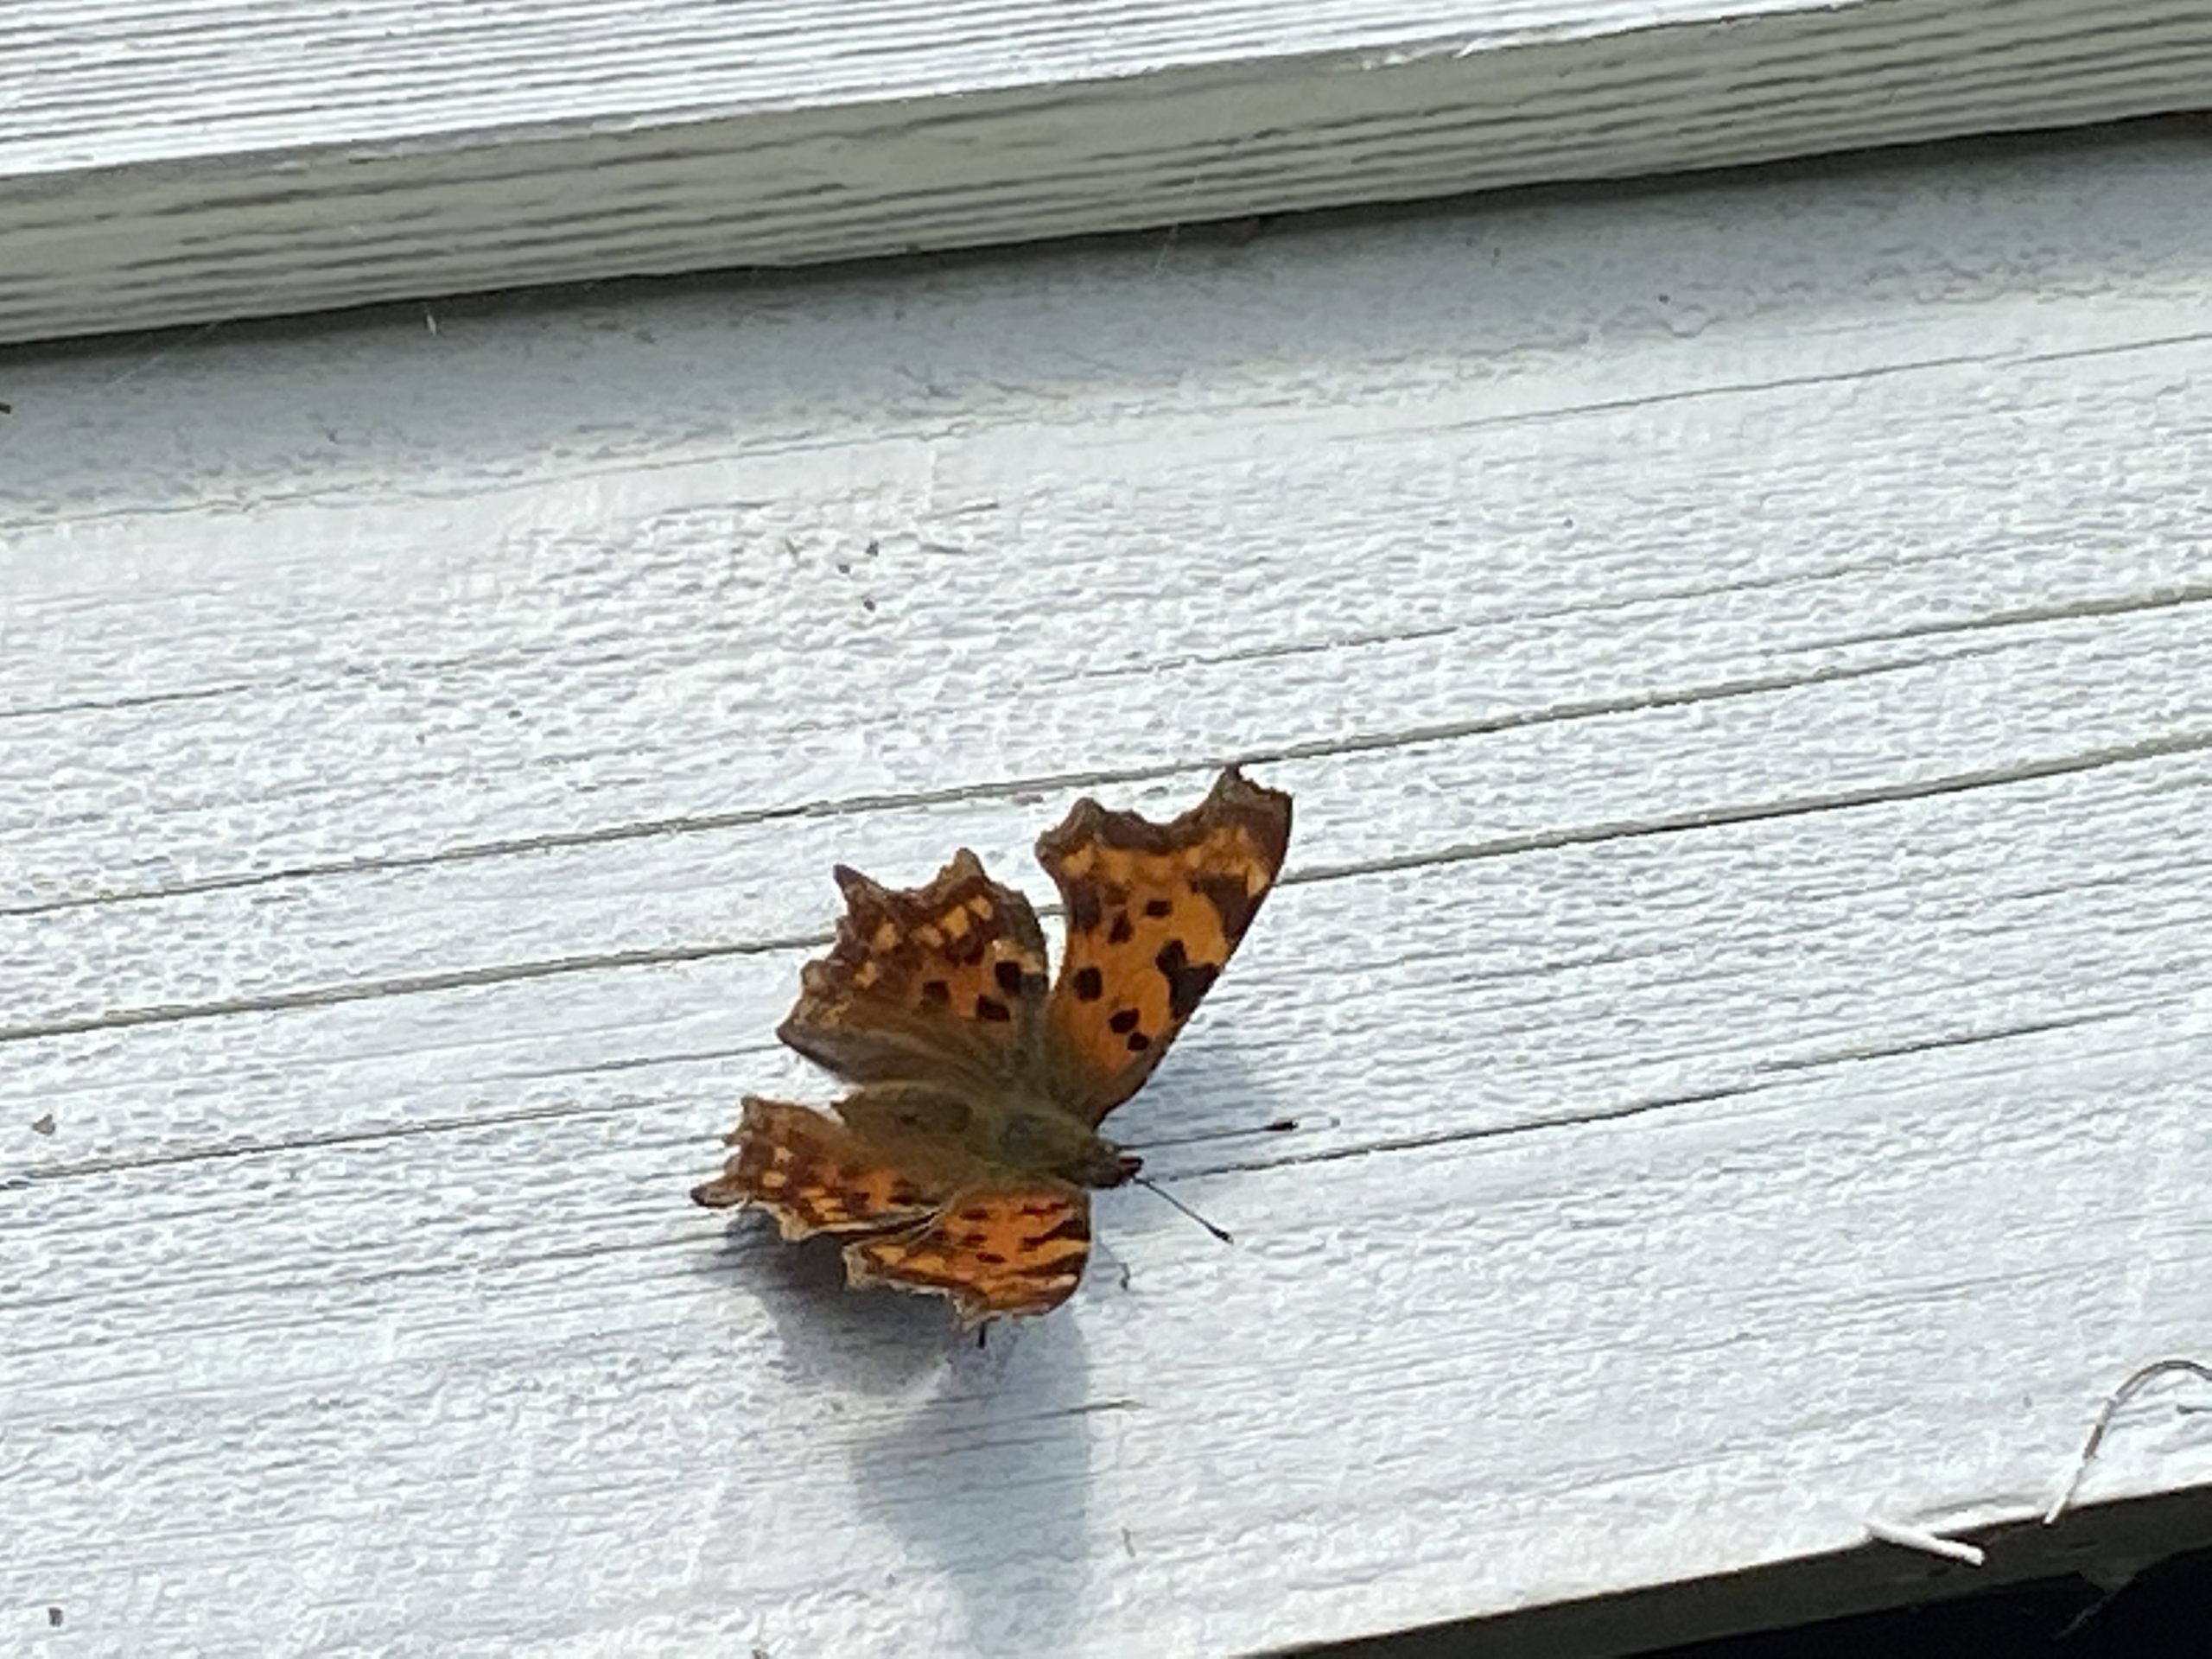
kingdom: Animalia
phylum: Arthropoda
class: Insecta
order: Lepidoptera
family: Nymphalidae
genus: Polygonia
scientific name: Polygonia c-album
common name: Det hvide C
